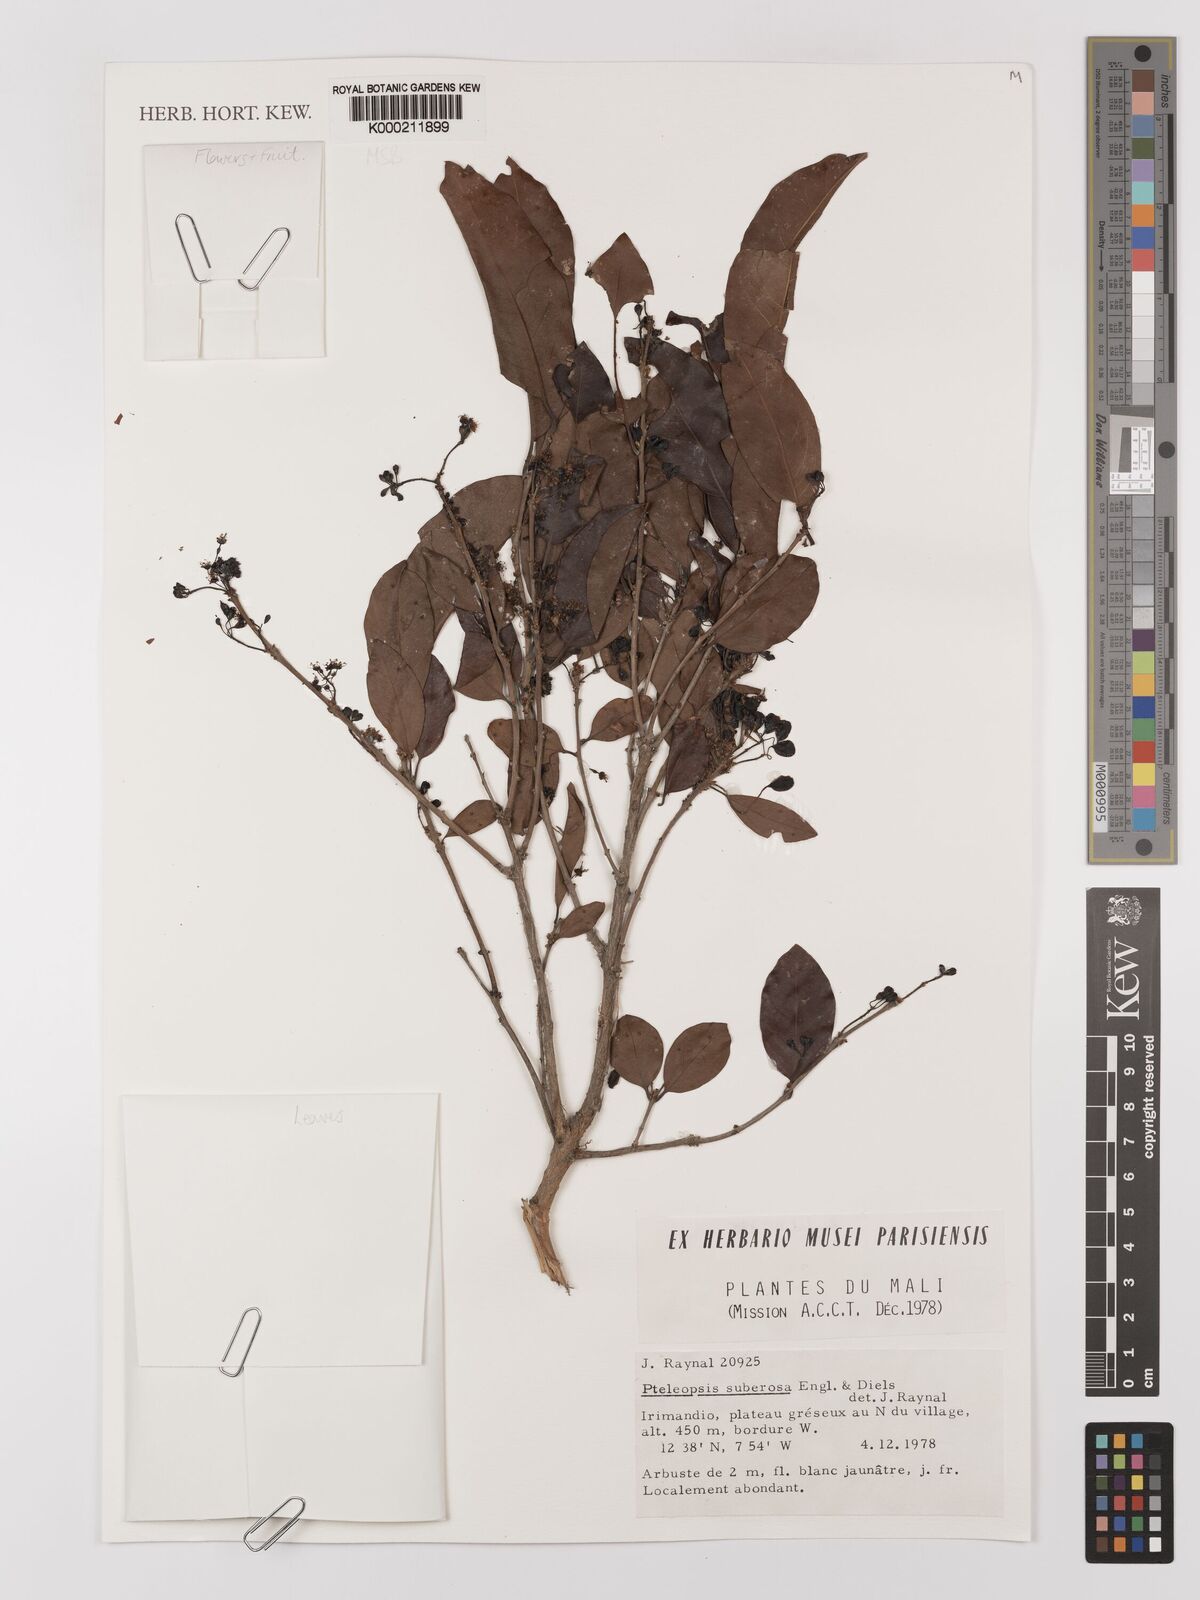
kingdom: Plantae
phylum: Tracheophyta
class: Magnoliopsida
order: Myrtales
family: Combretaceae
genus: Terminalia
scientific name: Terminalia engleri
